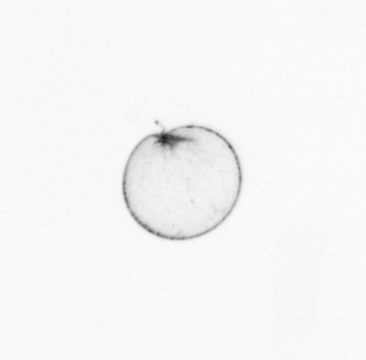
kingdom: Chromista
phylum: Myzozoa
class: Dinophyceae
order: Noctilucales
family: Noctilucaceae
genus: Noctiluca
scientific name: Noctiluca scintillans
